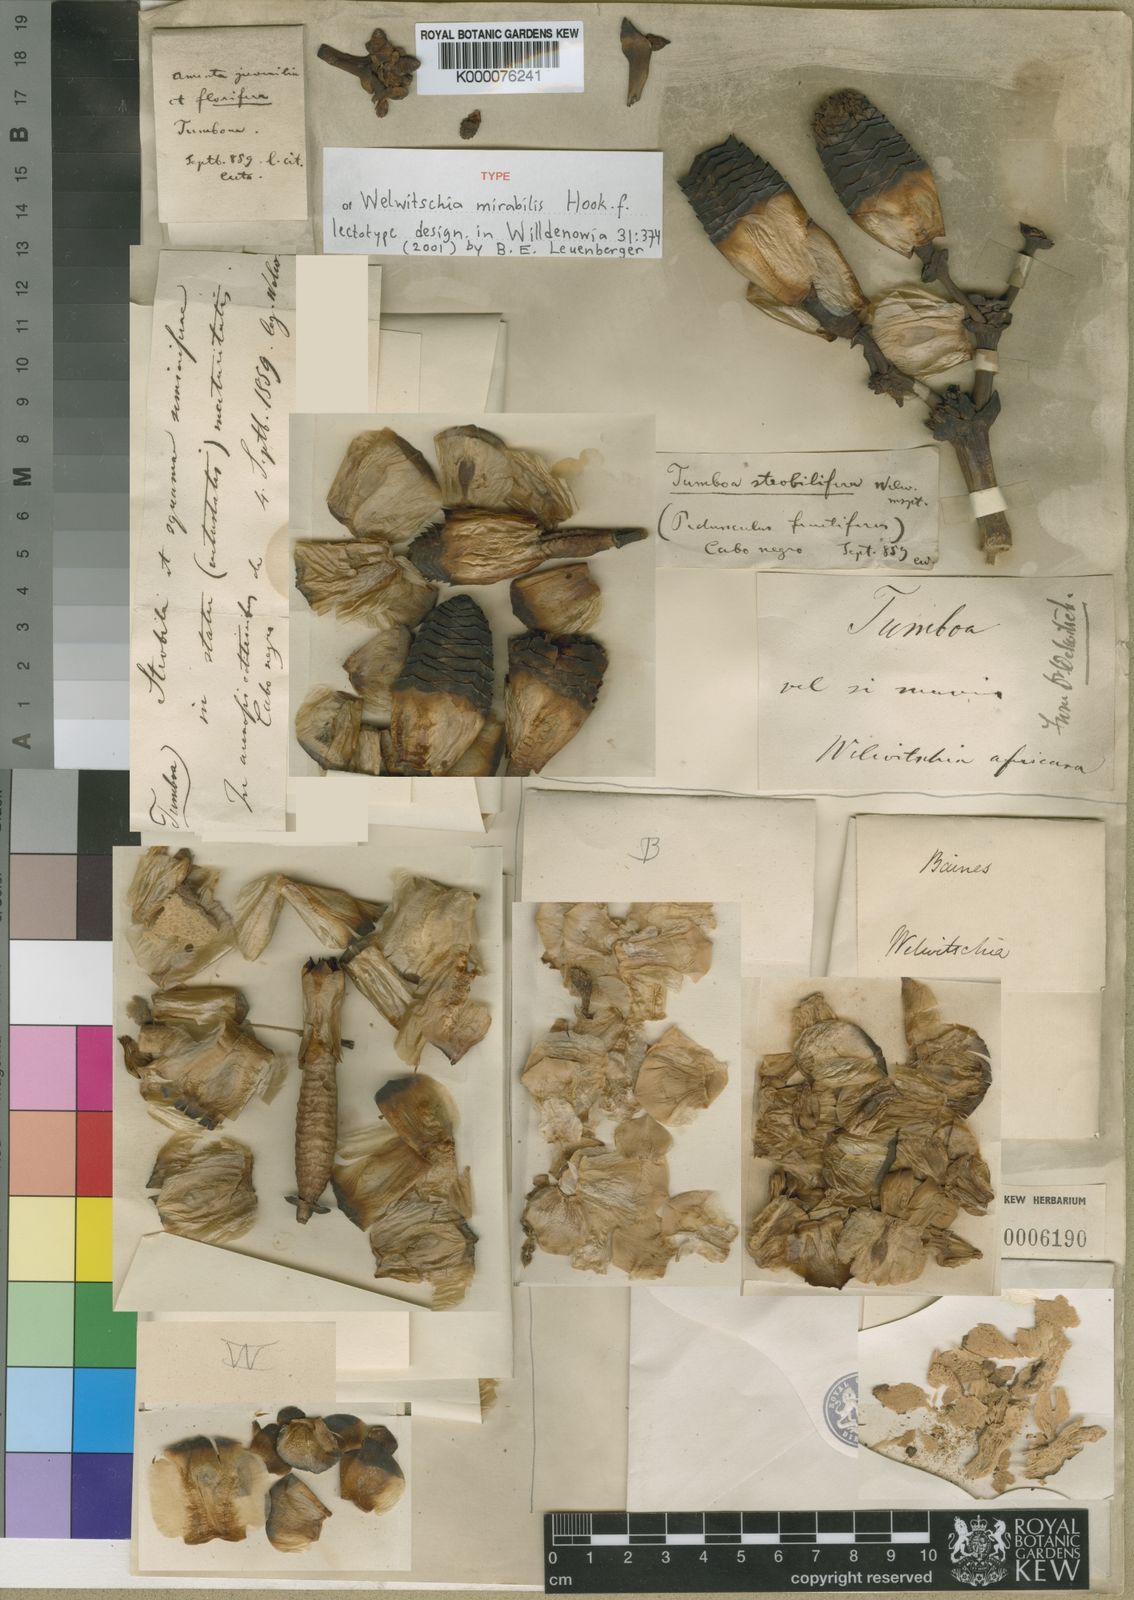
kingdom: Plantae
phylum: Tracheophyta
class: Gnetopsida
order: Welwitschiales
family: Welwitschiaceae
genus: Welwitschia
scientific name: Welwitschia mirabilis
